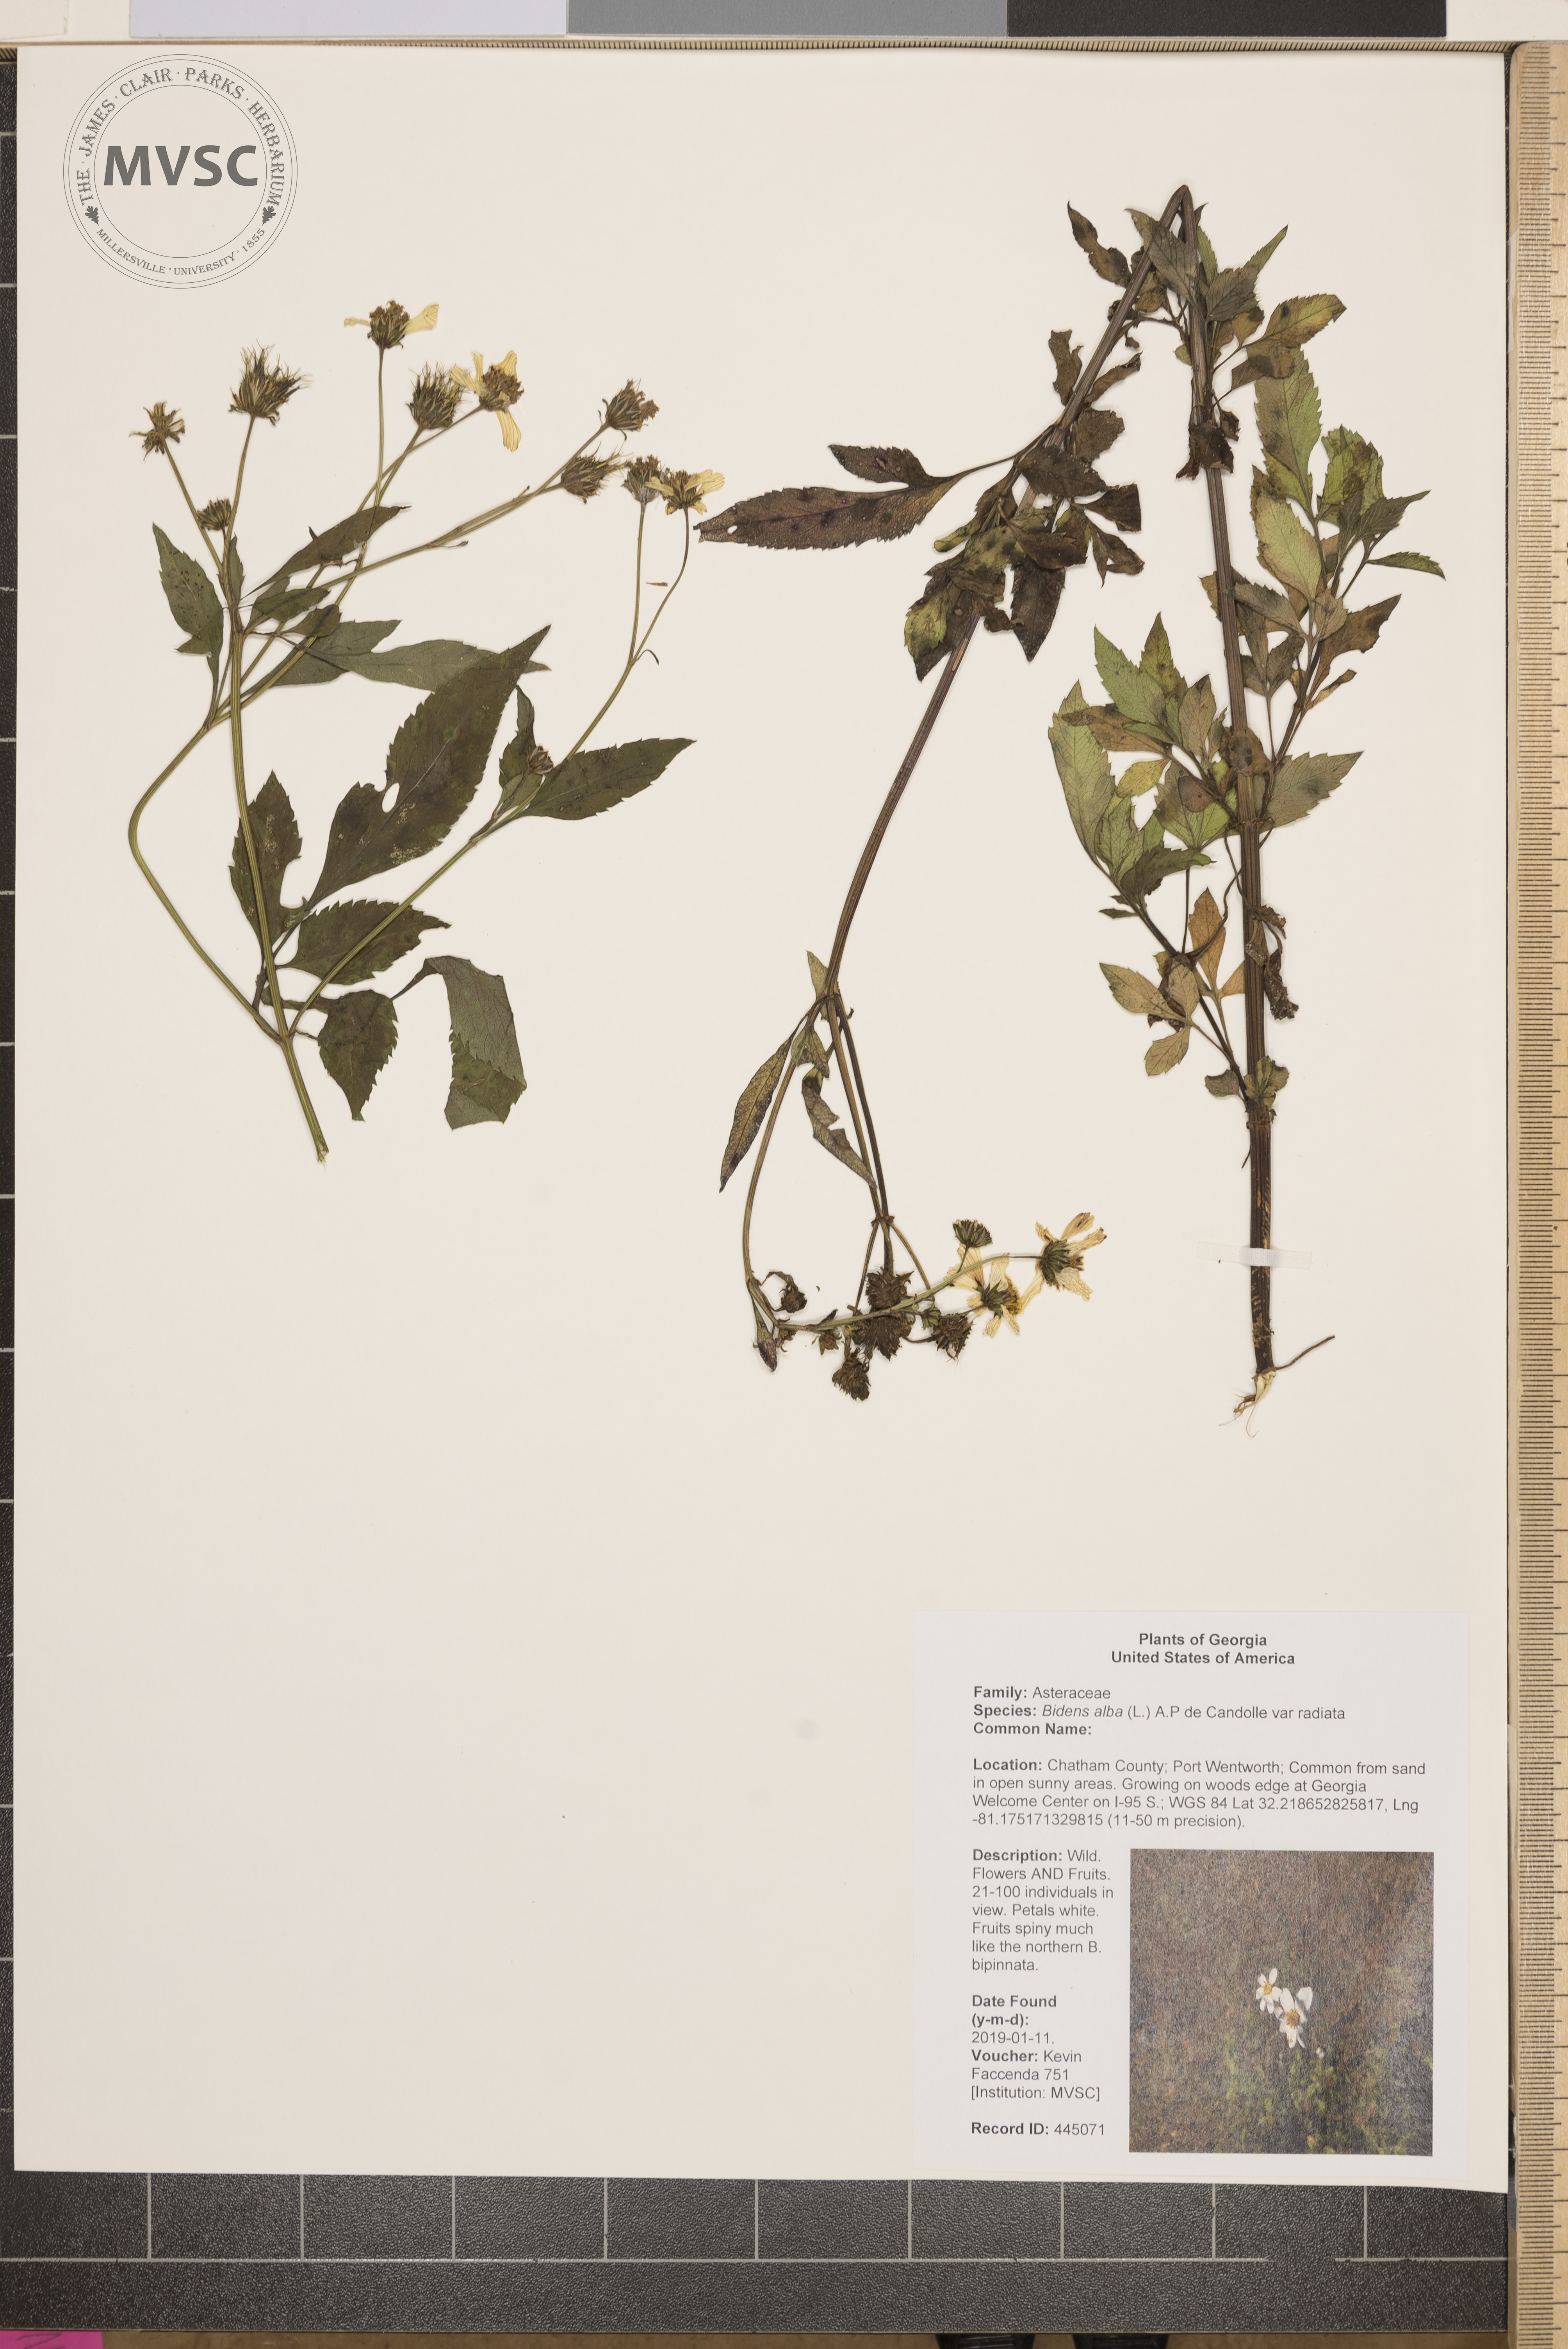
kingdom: Plantae
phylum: Tracheophyta
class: Magnoliopsida
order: Asterales
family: Asteraceae
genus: Bidens
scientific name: Bidens alba
